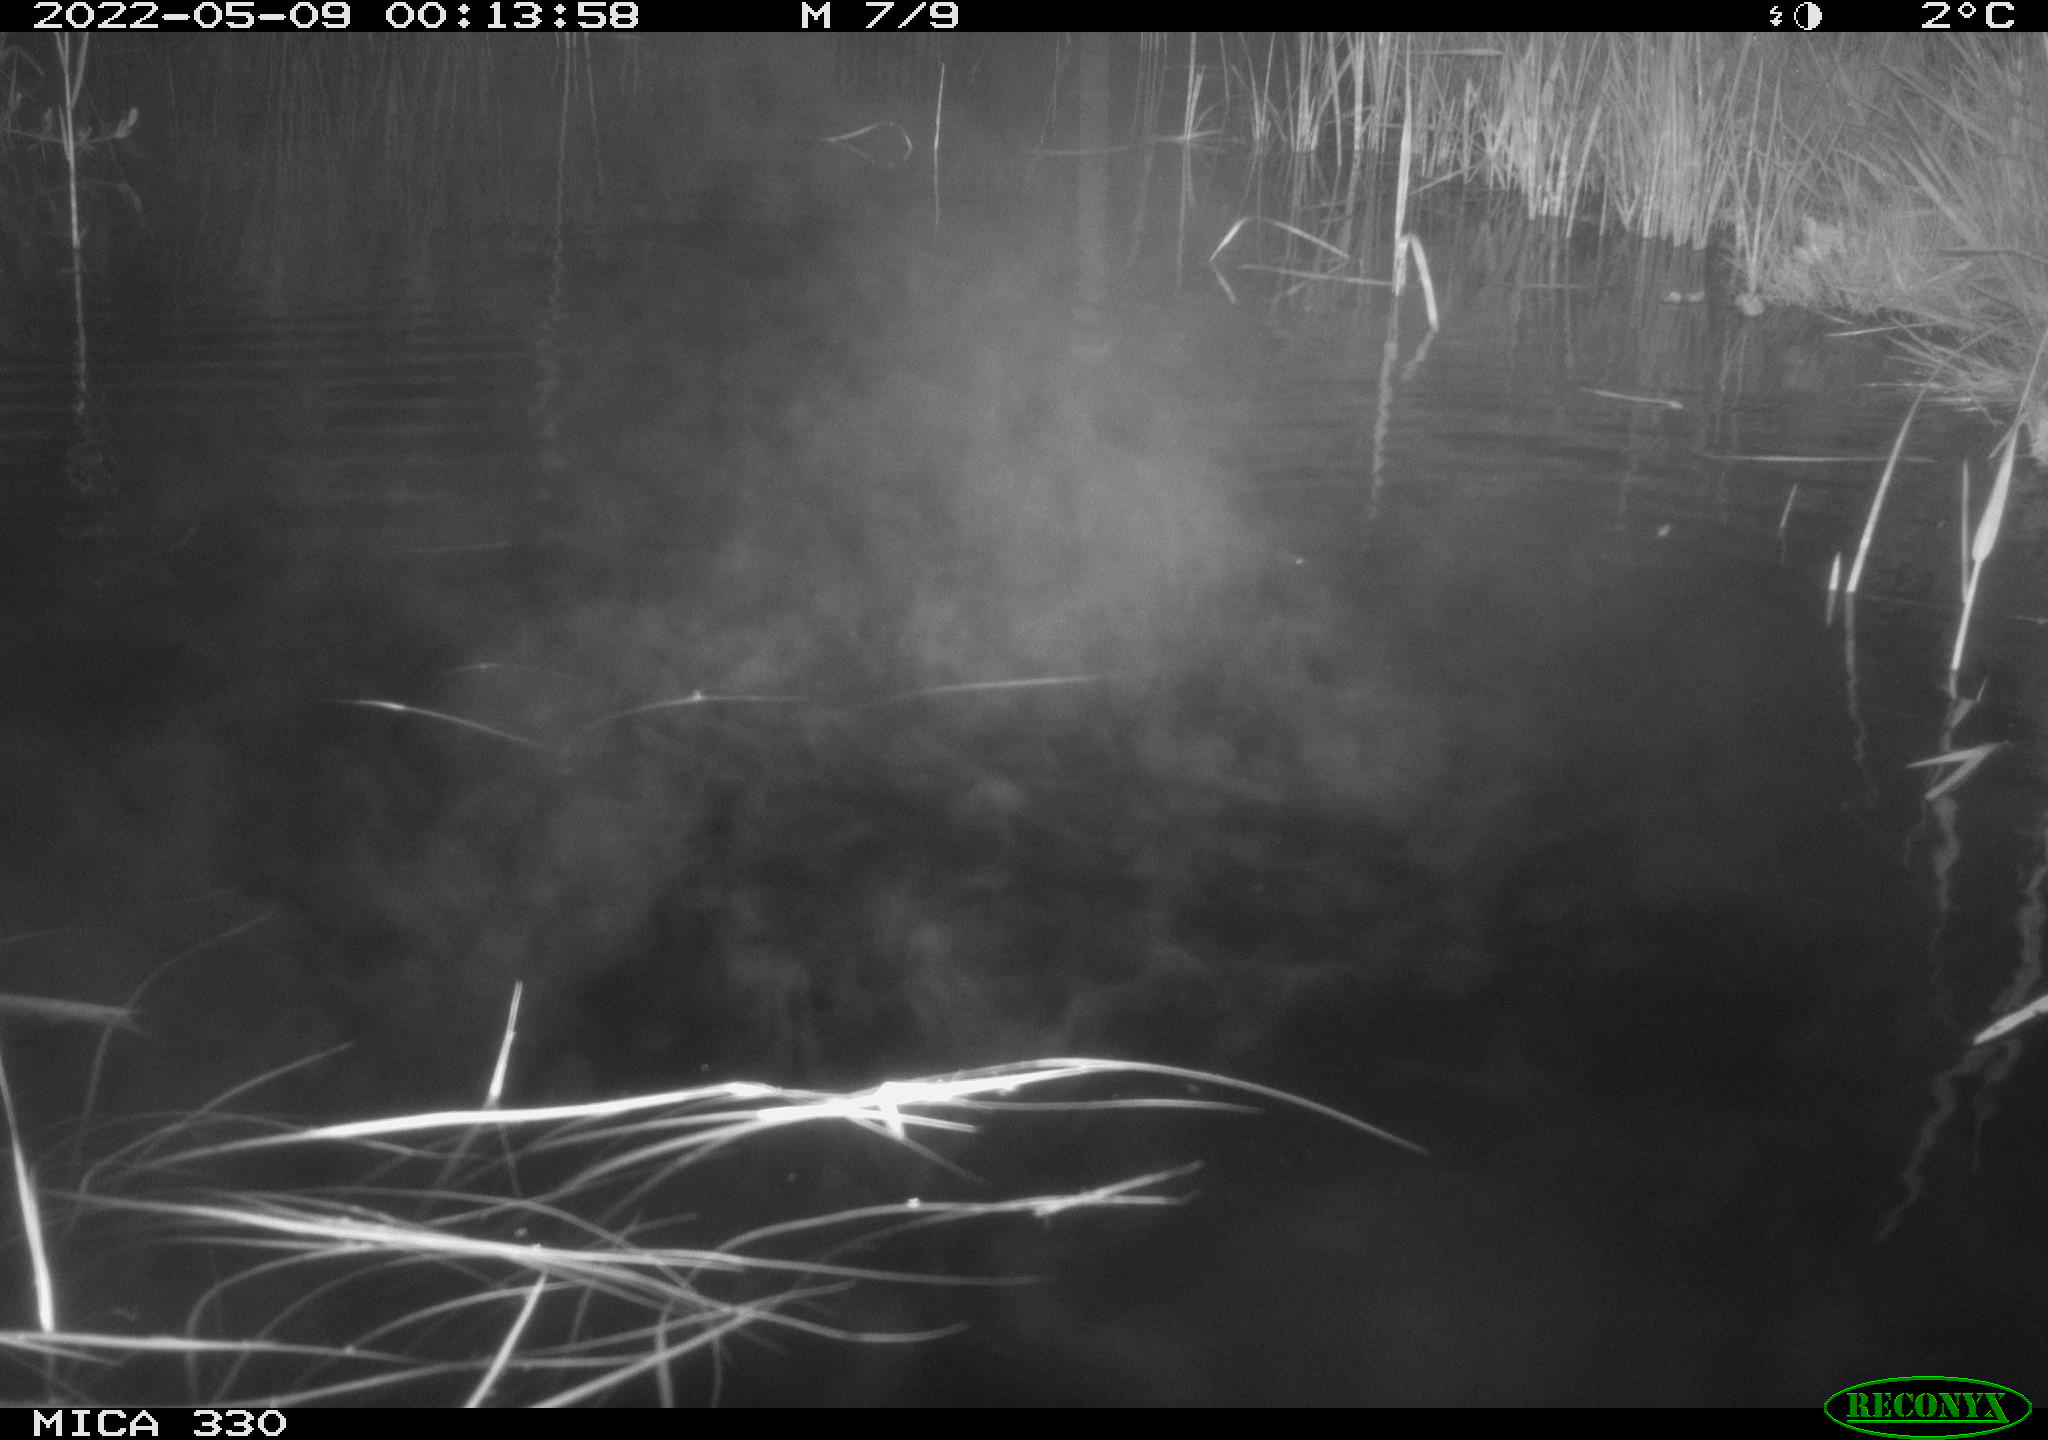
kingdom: Animalia
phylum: Chordata
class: Aves
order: Anseriformes
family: Anatidae
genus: Anas
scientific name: Anas platyrhynchos
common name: Mallard
